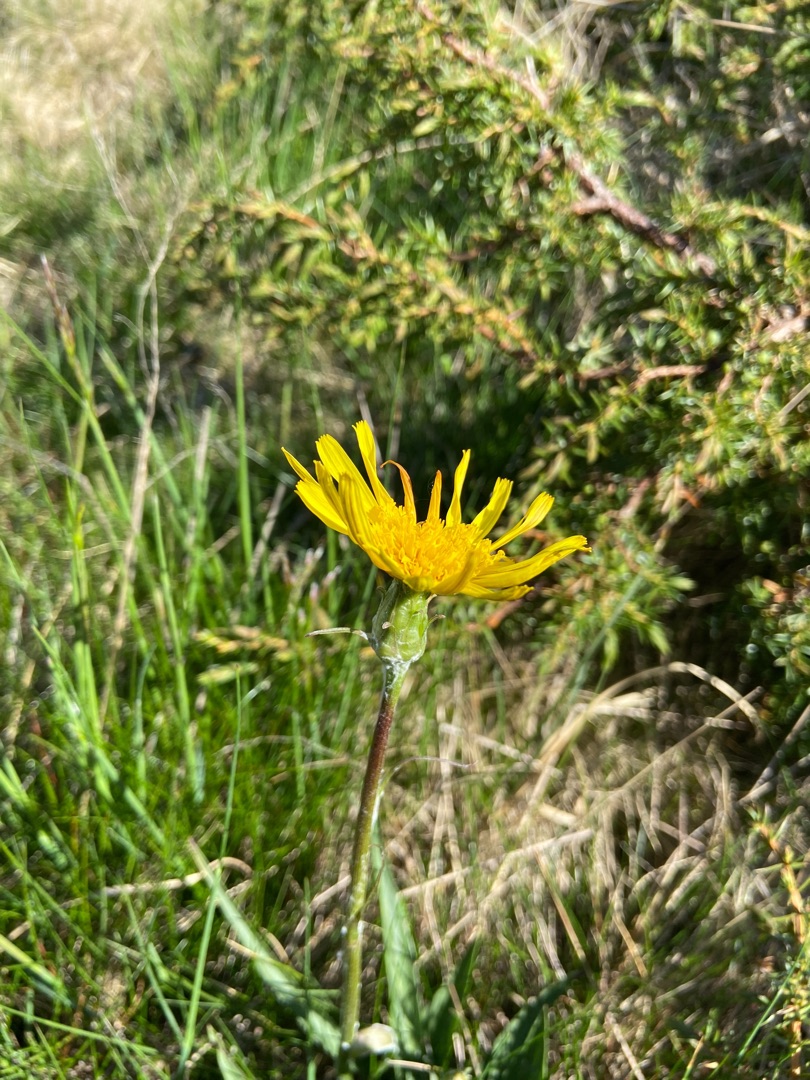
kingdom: Plantae
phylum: Tracheophyta
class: Magnoliopsida
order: Asterales
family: Asteraceae
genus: Scorzonera
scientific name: Scorzonera humilis
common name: Lav skorsoner
